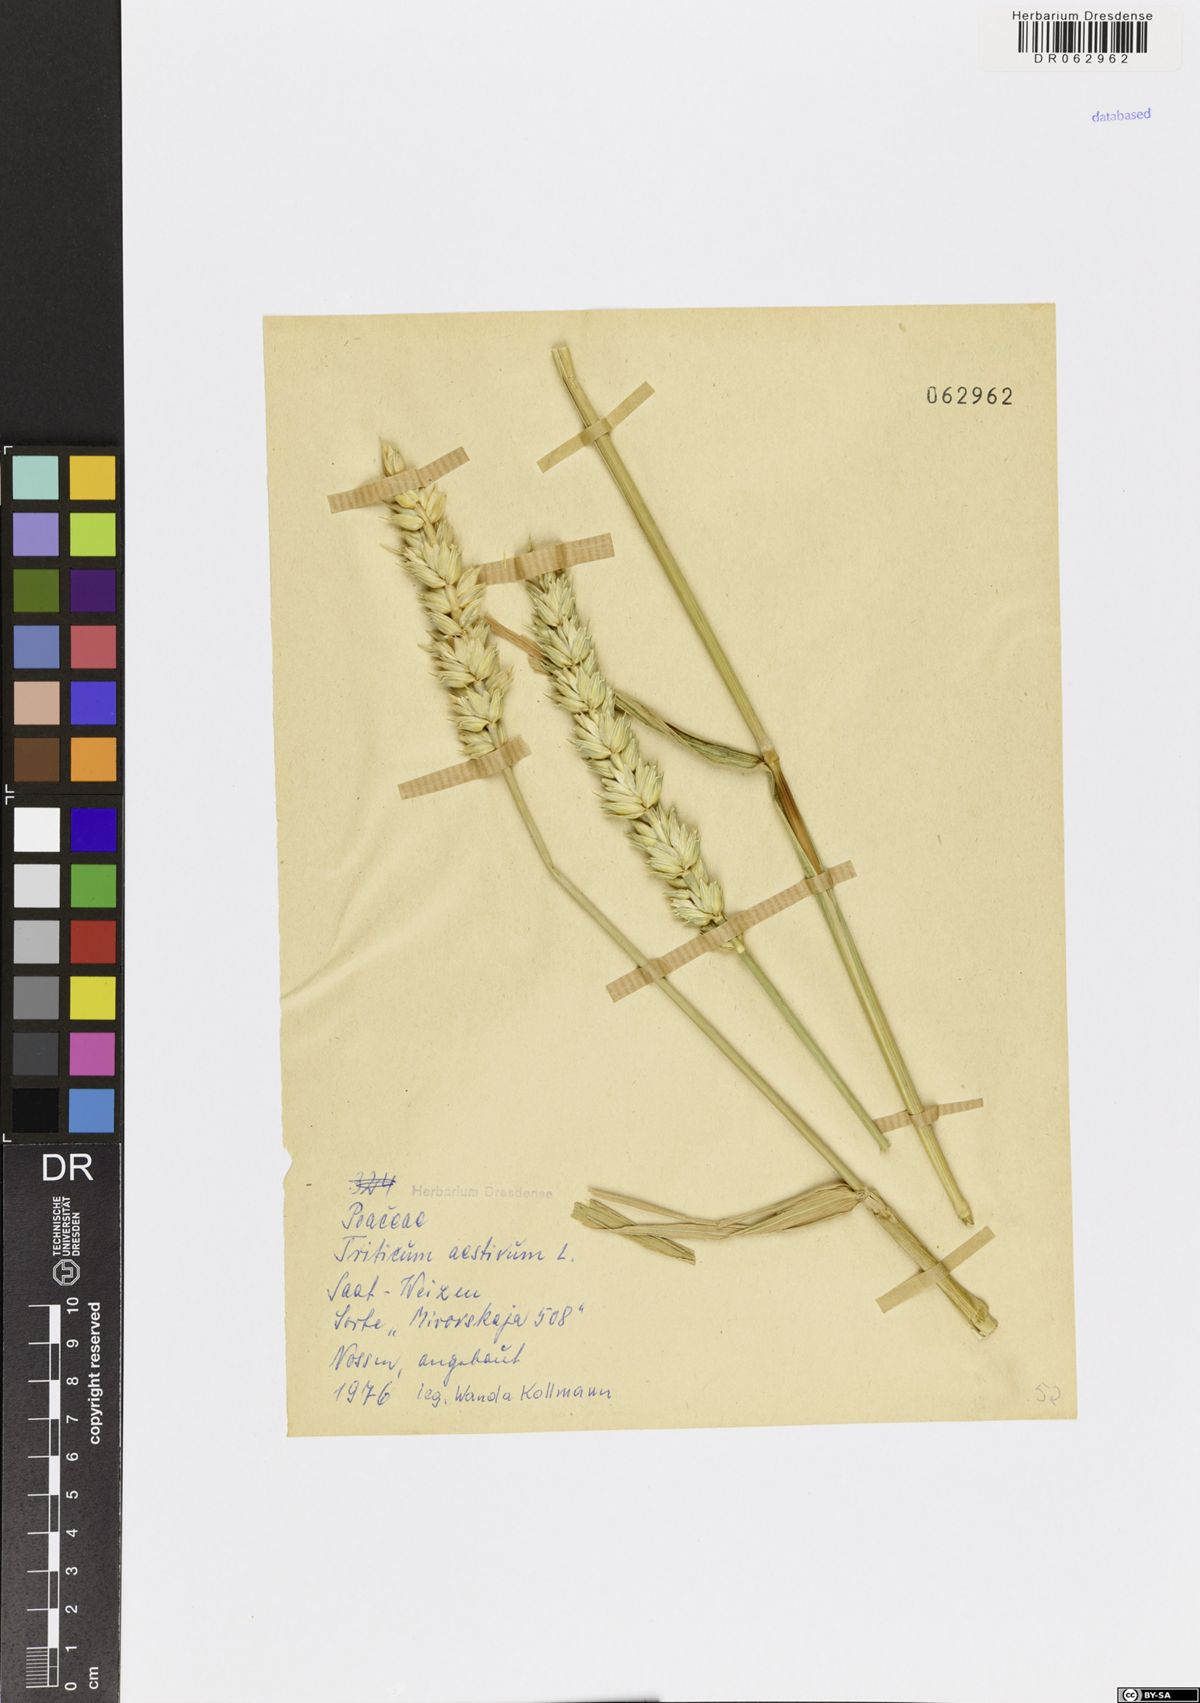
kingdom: Plantae
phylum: Tracheophyta
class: Liliopsida
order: Poales
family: Poaceae
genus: Triticum
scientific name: Triticum aestivum
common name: Common wheat
